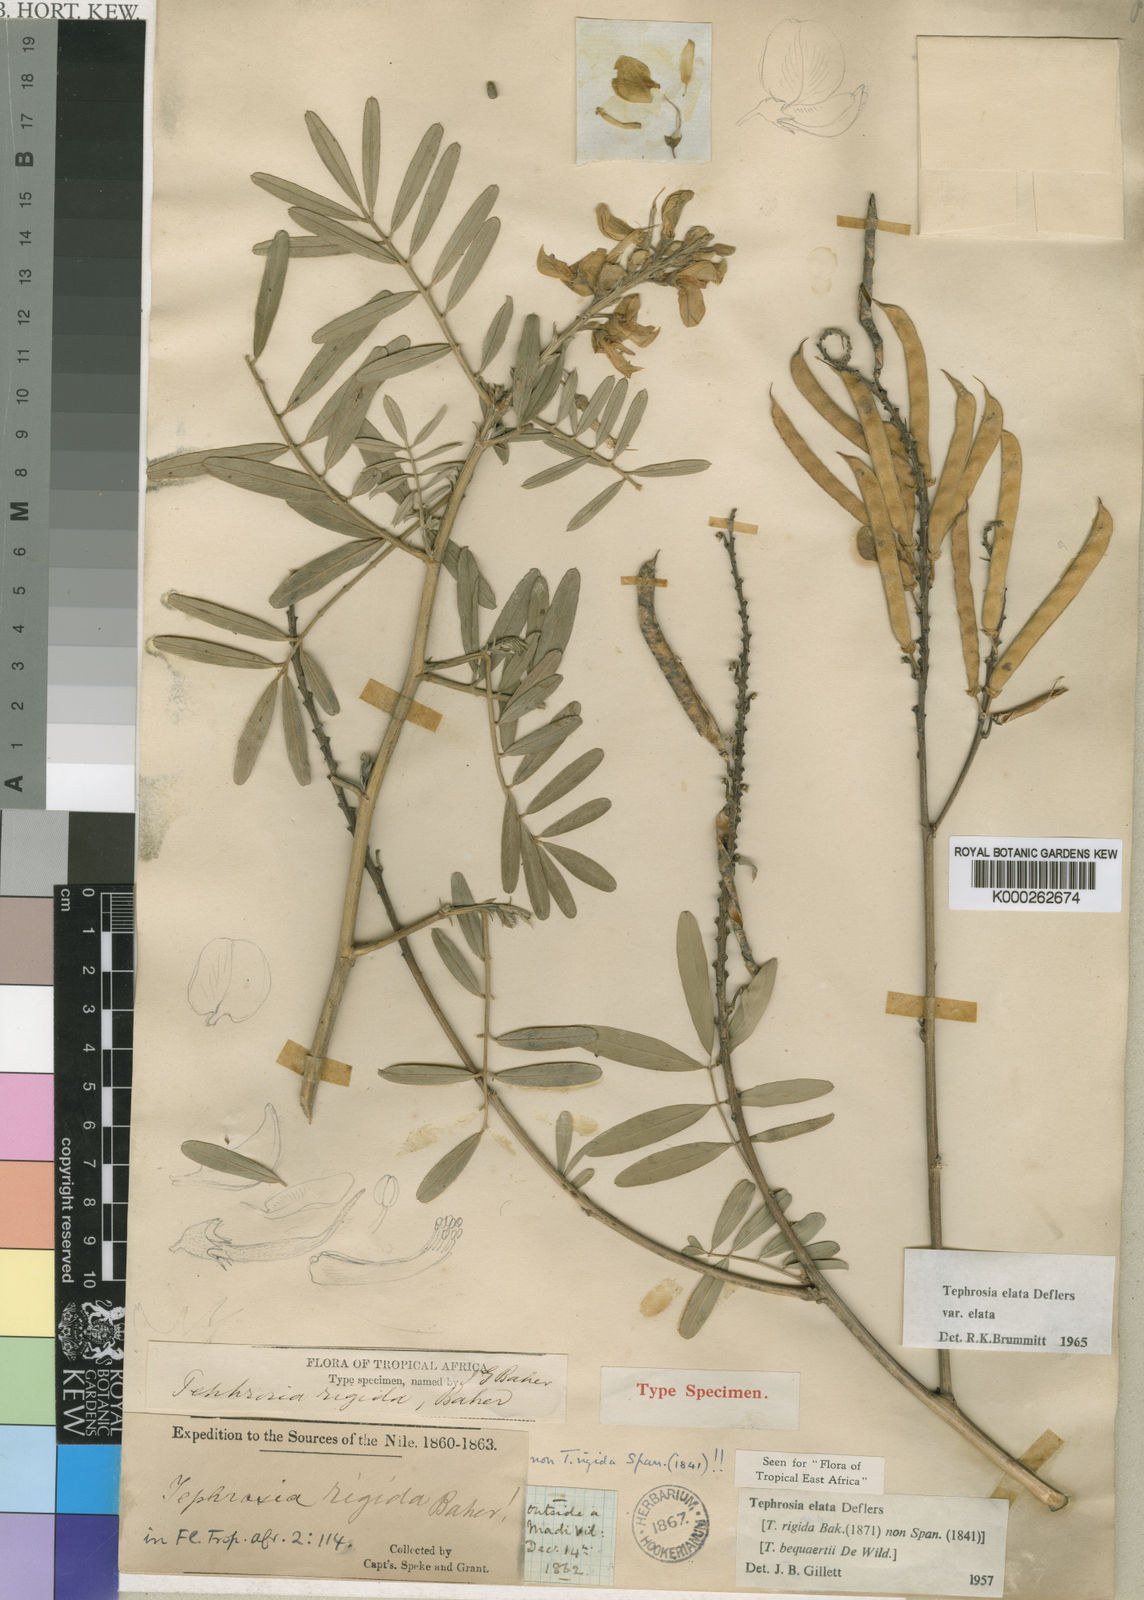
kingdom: Plantae
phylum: Tracheophyta
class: Magnoliopsida
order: Fabales
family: Fabaceae
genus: Tephrosia
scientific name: Tephrosia elata
